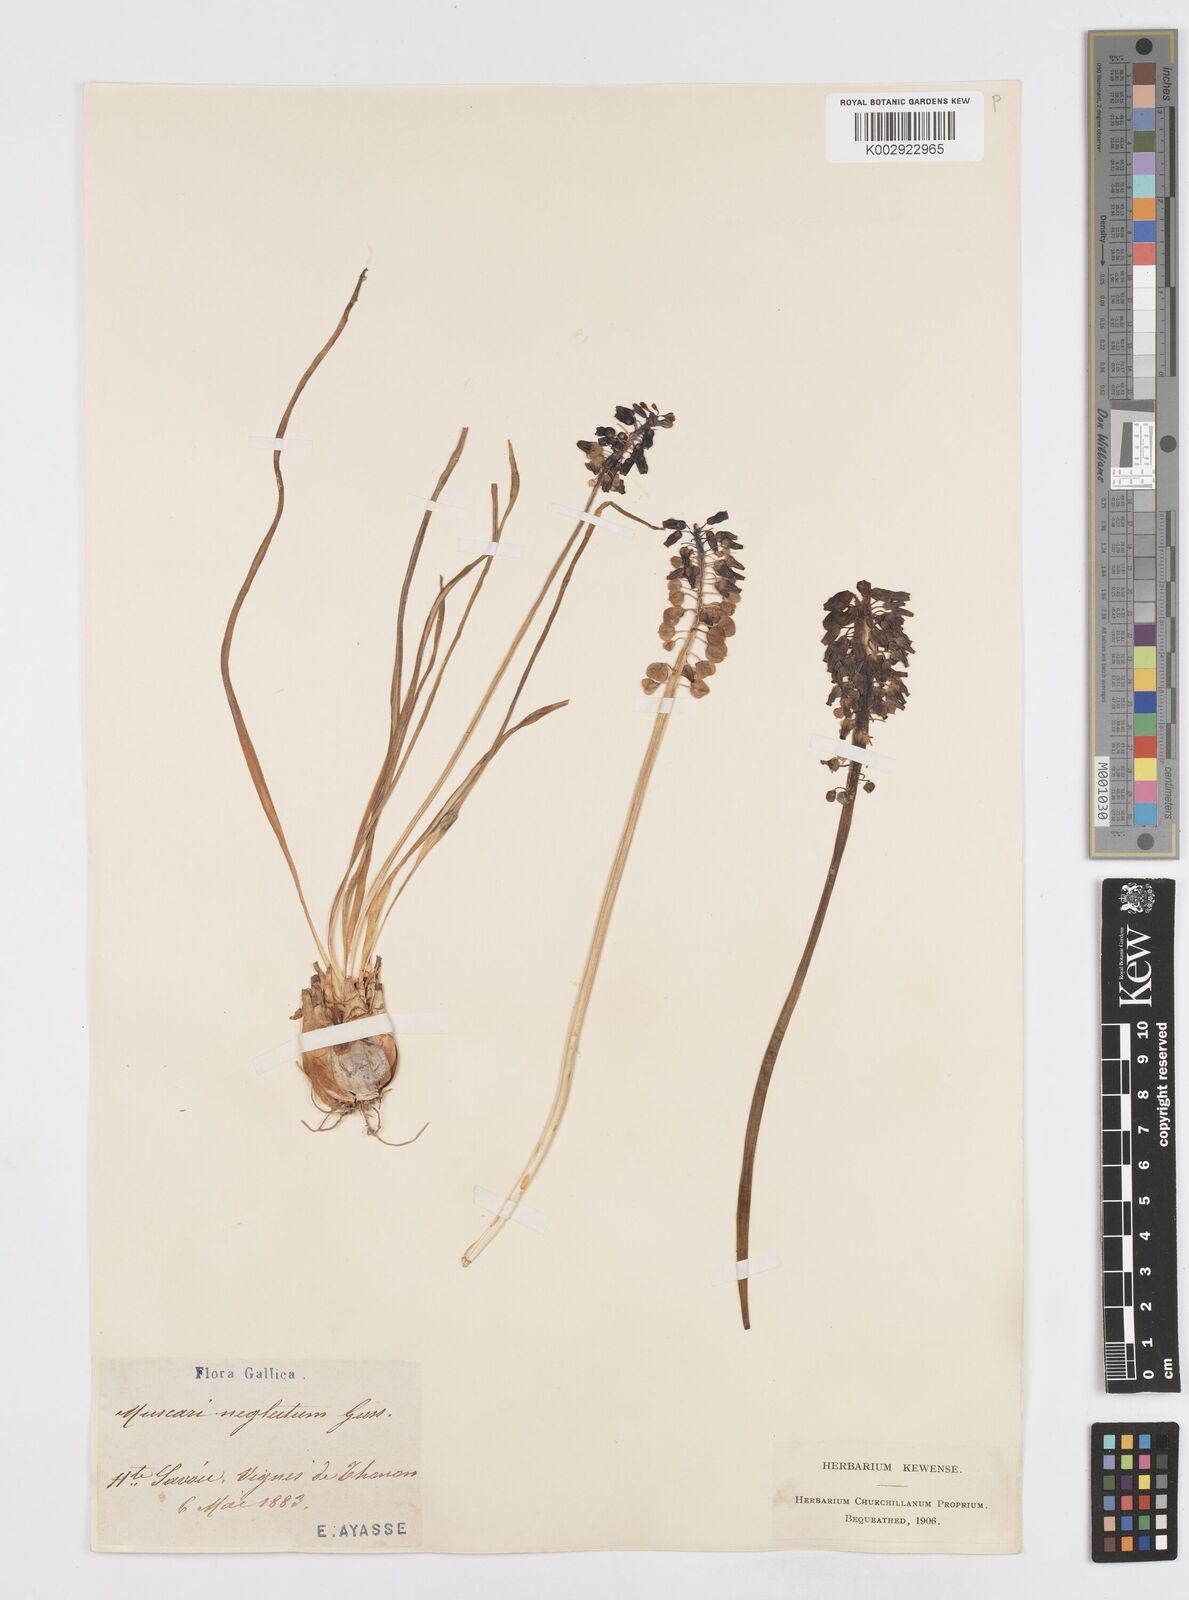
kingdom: Plantae
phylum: Tracheophyta
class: Liliopsida
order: Asparagales
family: Asparagaceae
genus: Muscari
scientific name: Muscari neglectum
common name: Grape-hyacinth
